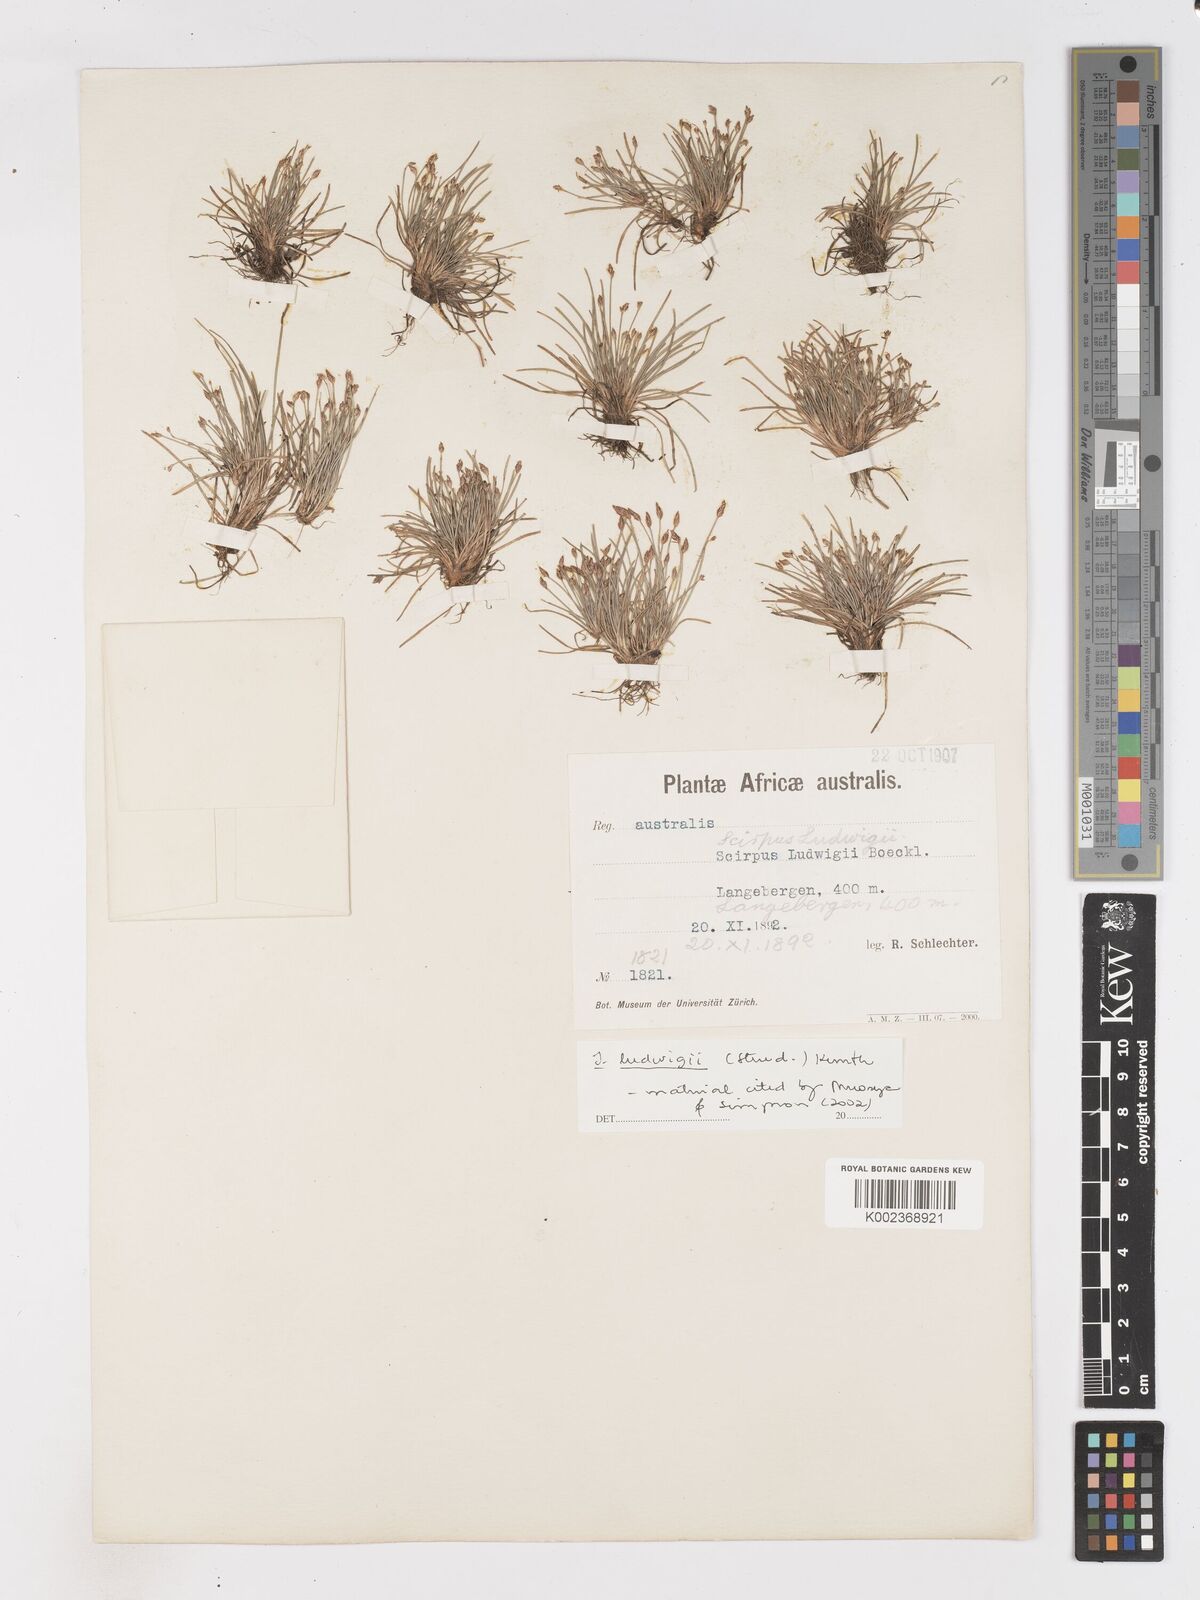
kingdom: Plantae
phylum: Tracheophyta
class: Liliopsida
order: Poales
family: Cyperaceae
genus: Isolepis
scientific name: Isolepis ludwigii
